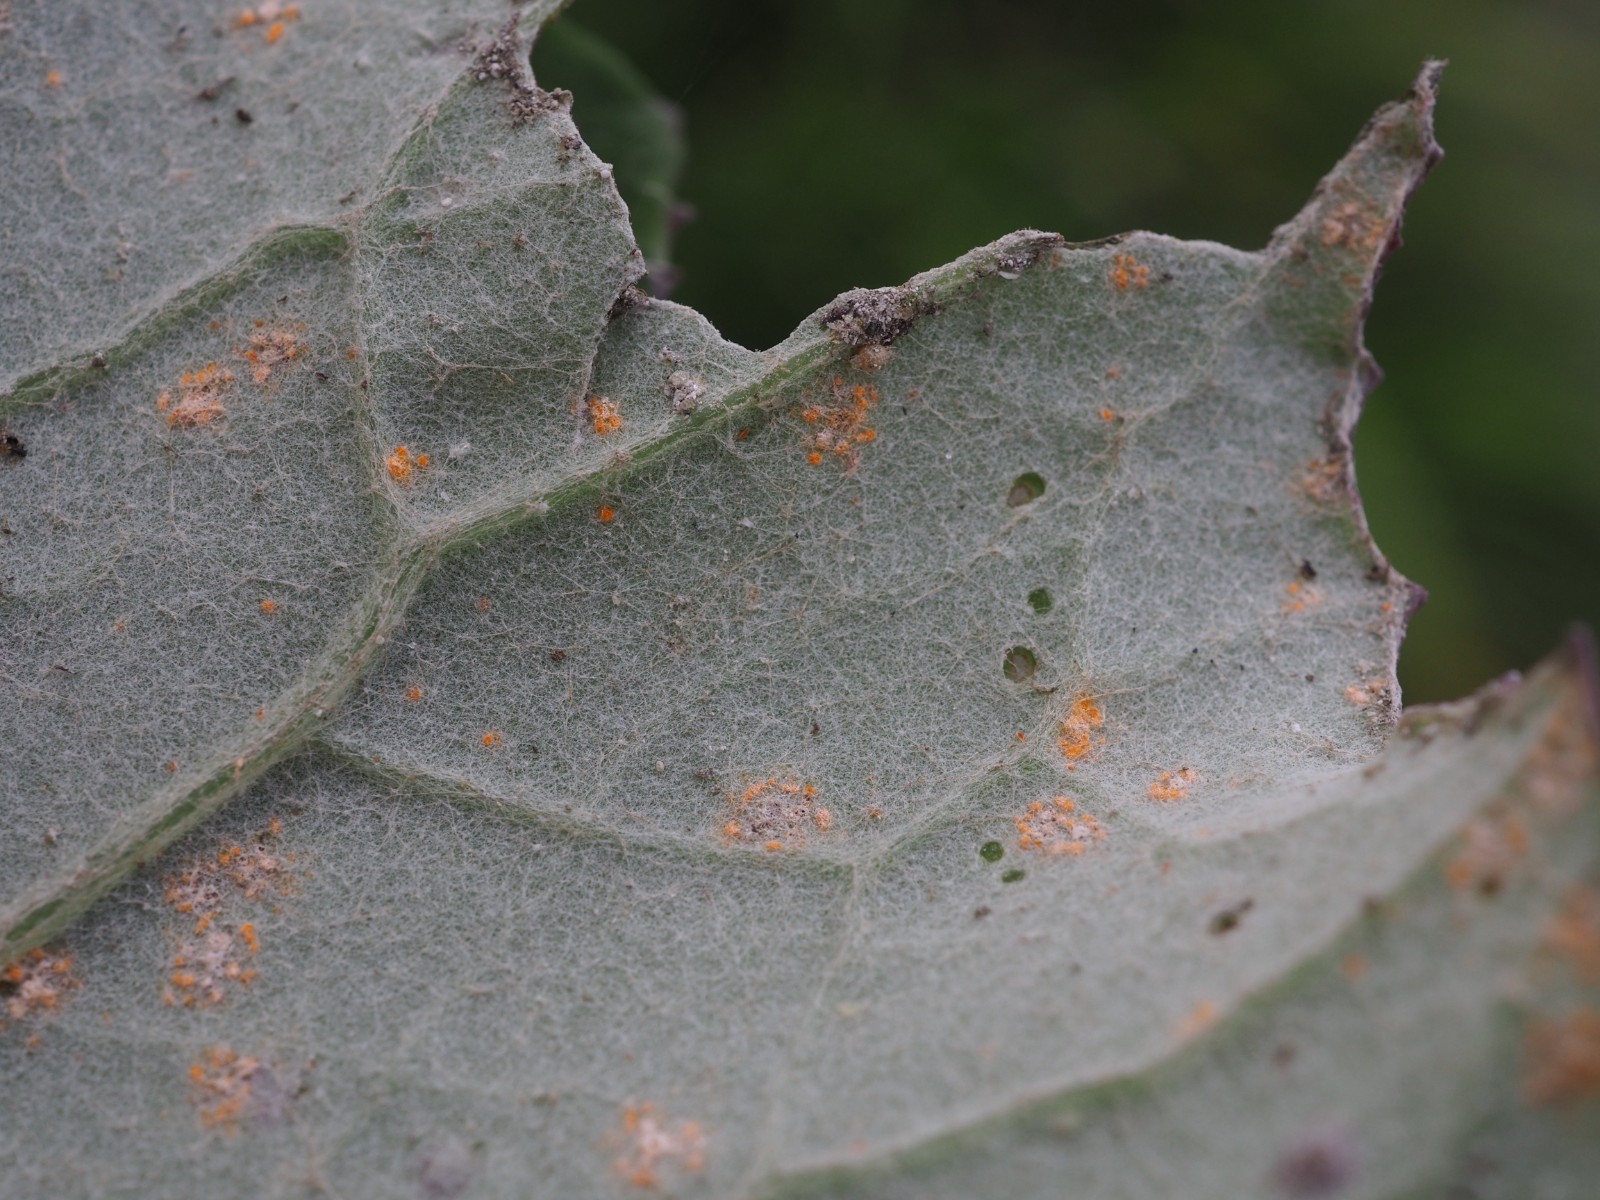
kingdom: Fungi
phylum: Basidiomycota
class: Pucciniomycetes
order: Pucciniales
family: Coleosporiaceae
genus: Coleosporium
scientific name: Coleosporium tussilaginis
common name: almindelig fyrrenålerust
